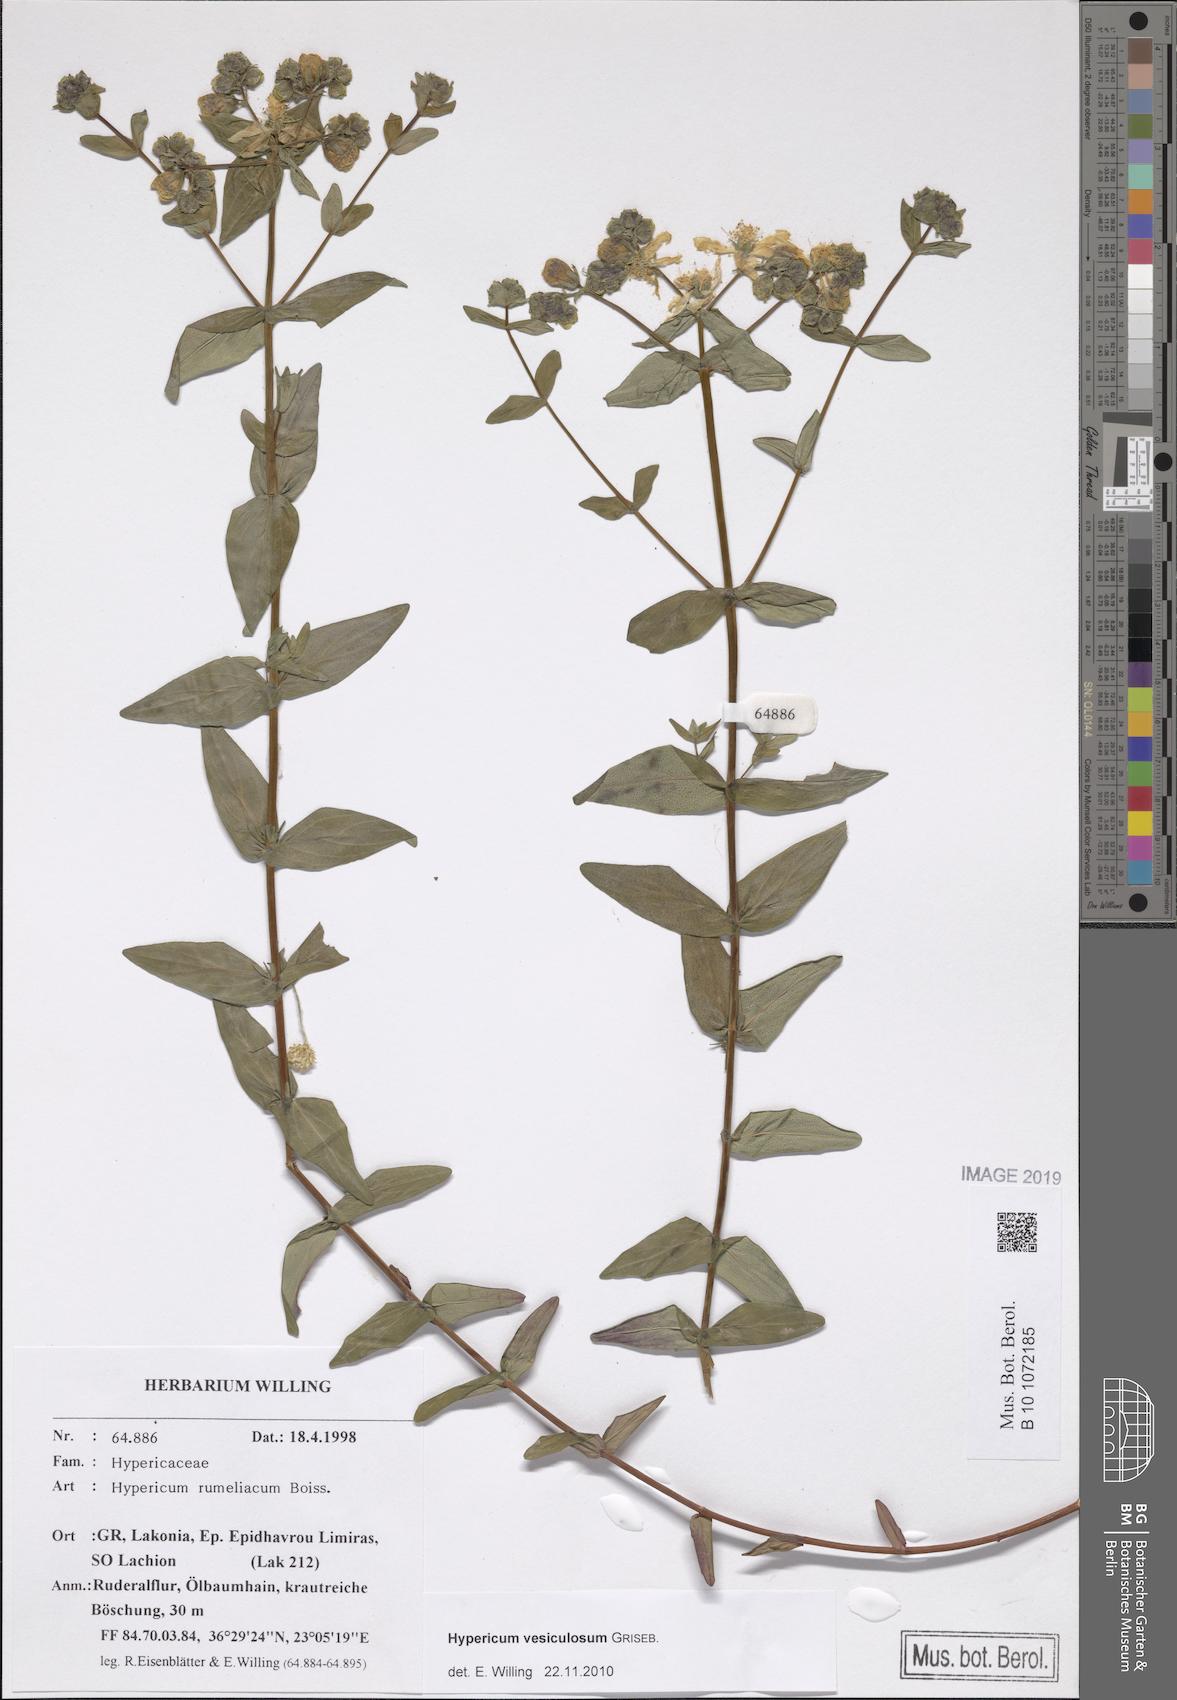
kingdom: Plantae
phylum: Tracheophyta
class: Magnoliopsida
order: Malpighiales
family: Hypericaceae
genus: Hypericum
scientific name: Hypericum perfoliatum
